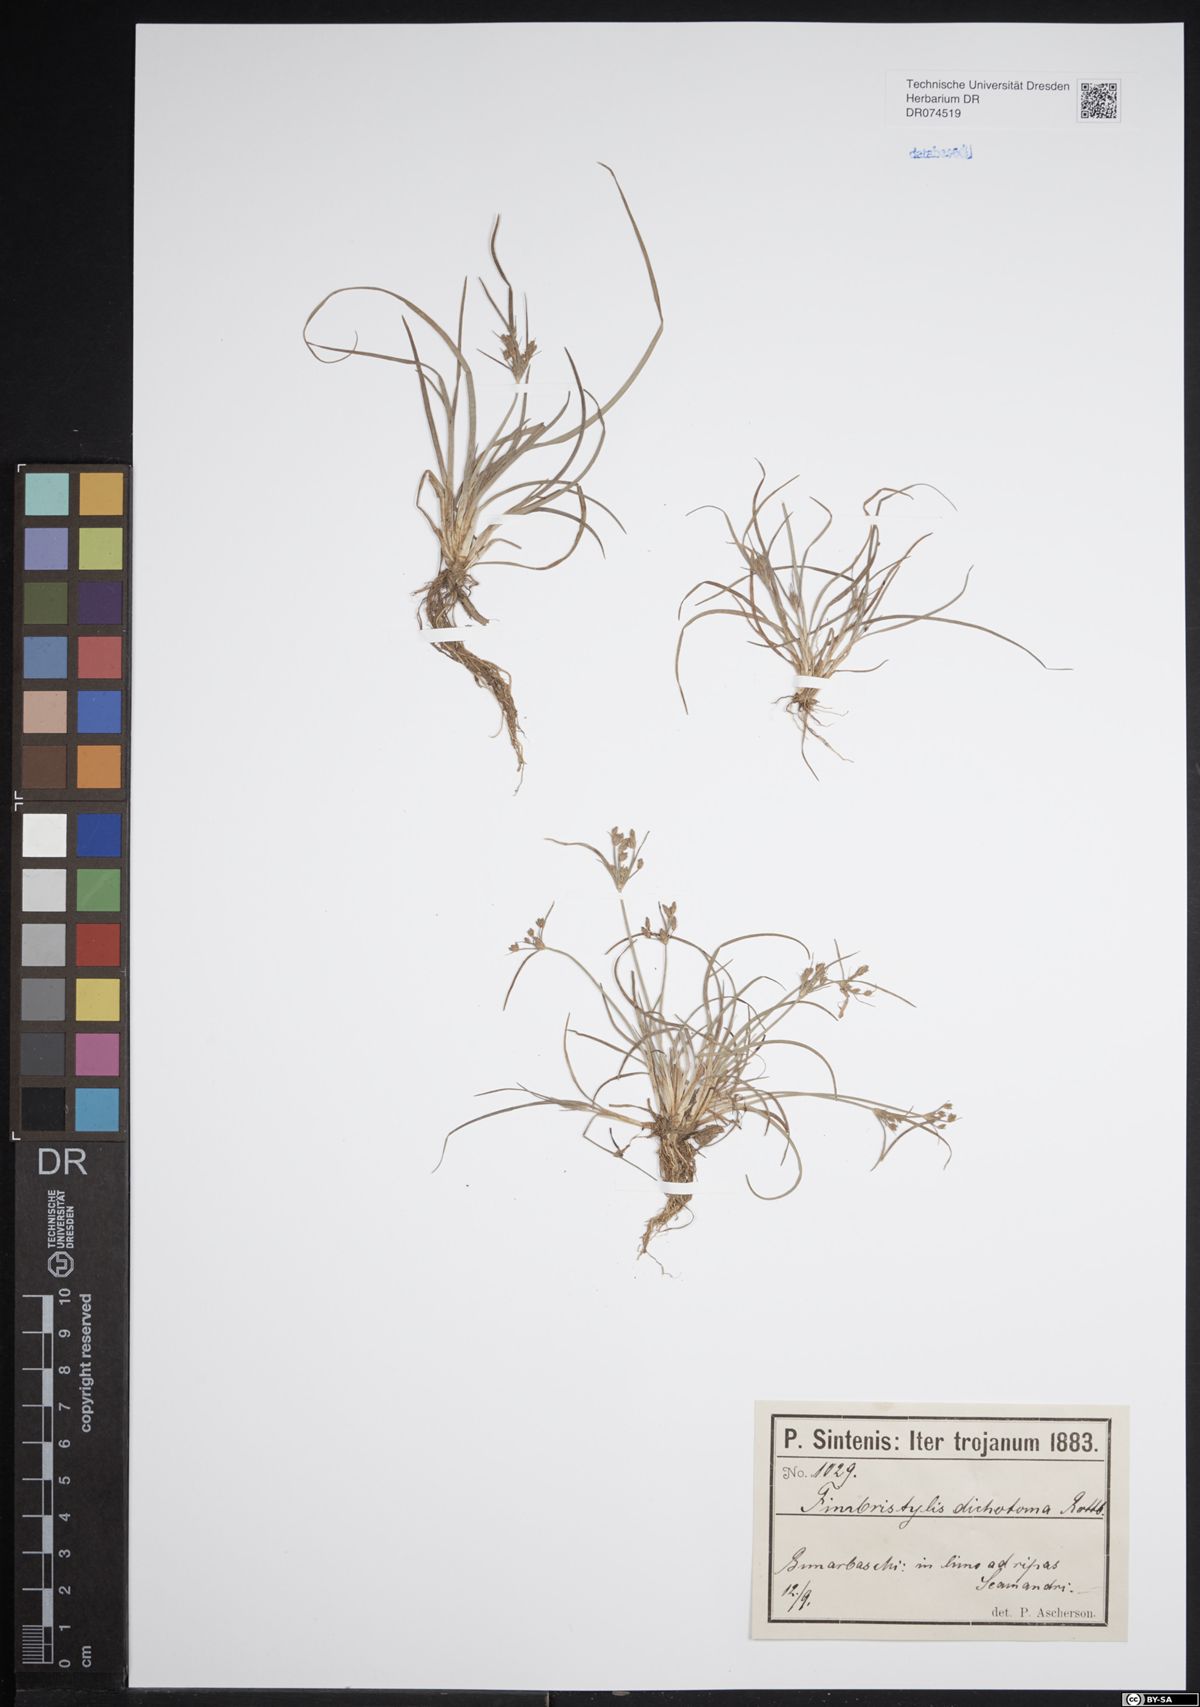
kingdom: Plantae
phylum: Tracheophyta
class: Liliopsida
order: Poales
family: Cyperaceae
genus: Fimbristylis
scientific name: Fimbristylis dichotoma
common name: Forked fimbry
